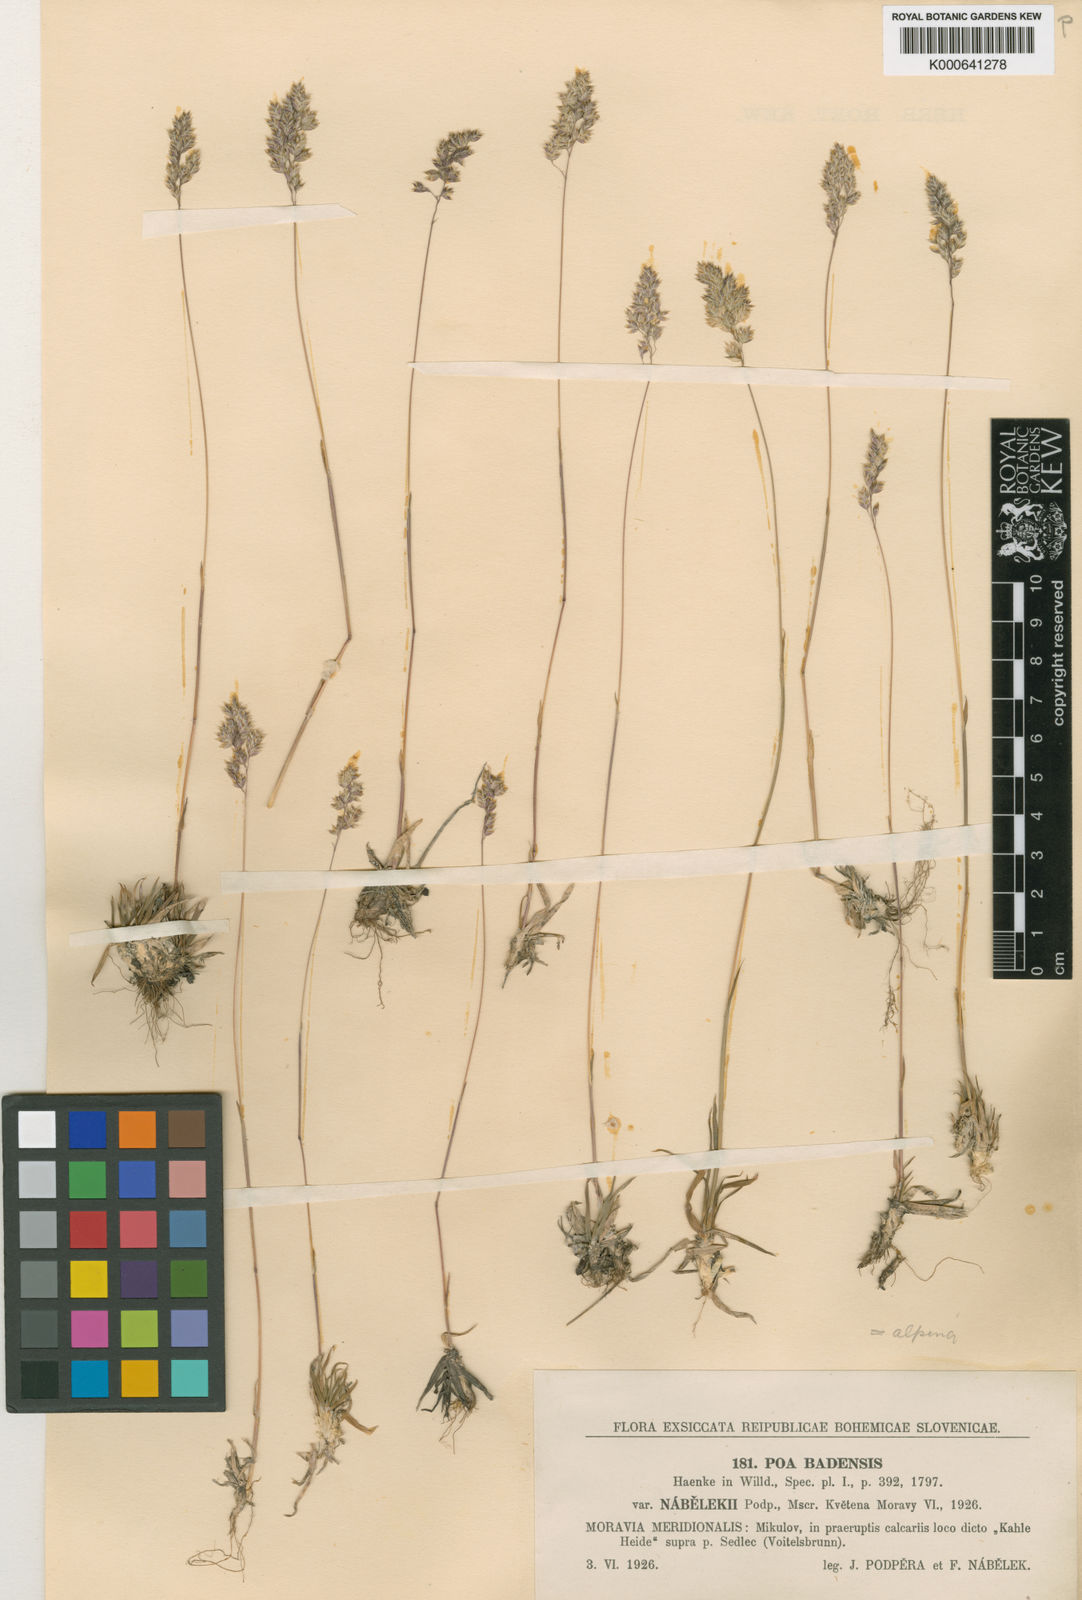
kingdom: Plantae
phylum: Tracheophyta
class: Liliopsida
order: Poales
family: Poaceae
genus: Poa
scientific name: Poa badensis
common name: Baden's bluegrass
